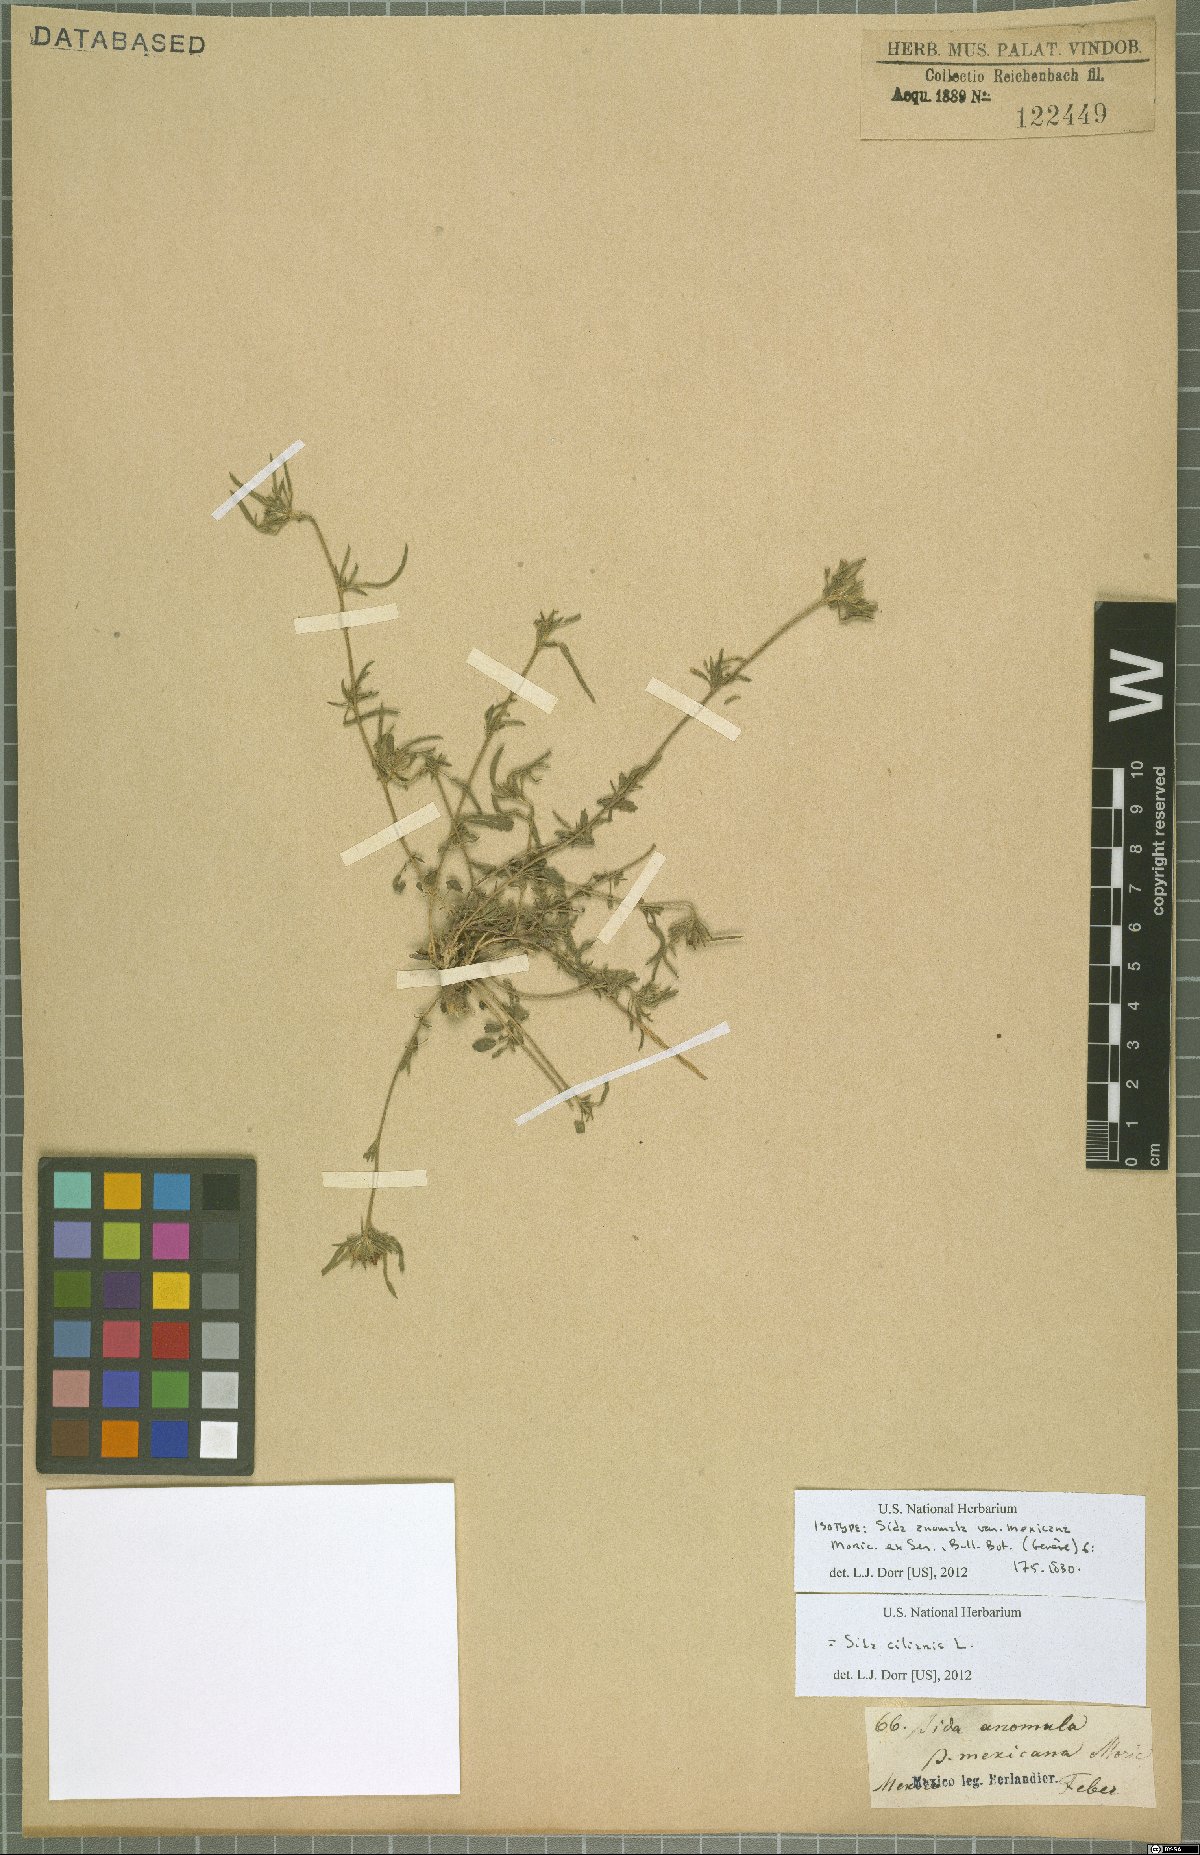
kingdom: Plantae
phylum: Tracheophyta
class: Magnoliopsida
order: Malvales
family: Malvaceae
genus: Sida
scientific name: Sida ciliaris
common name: Bracted fanpetals
